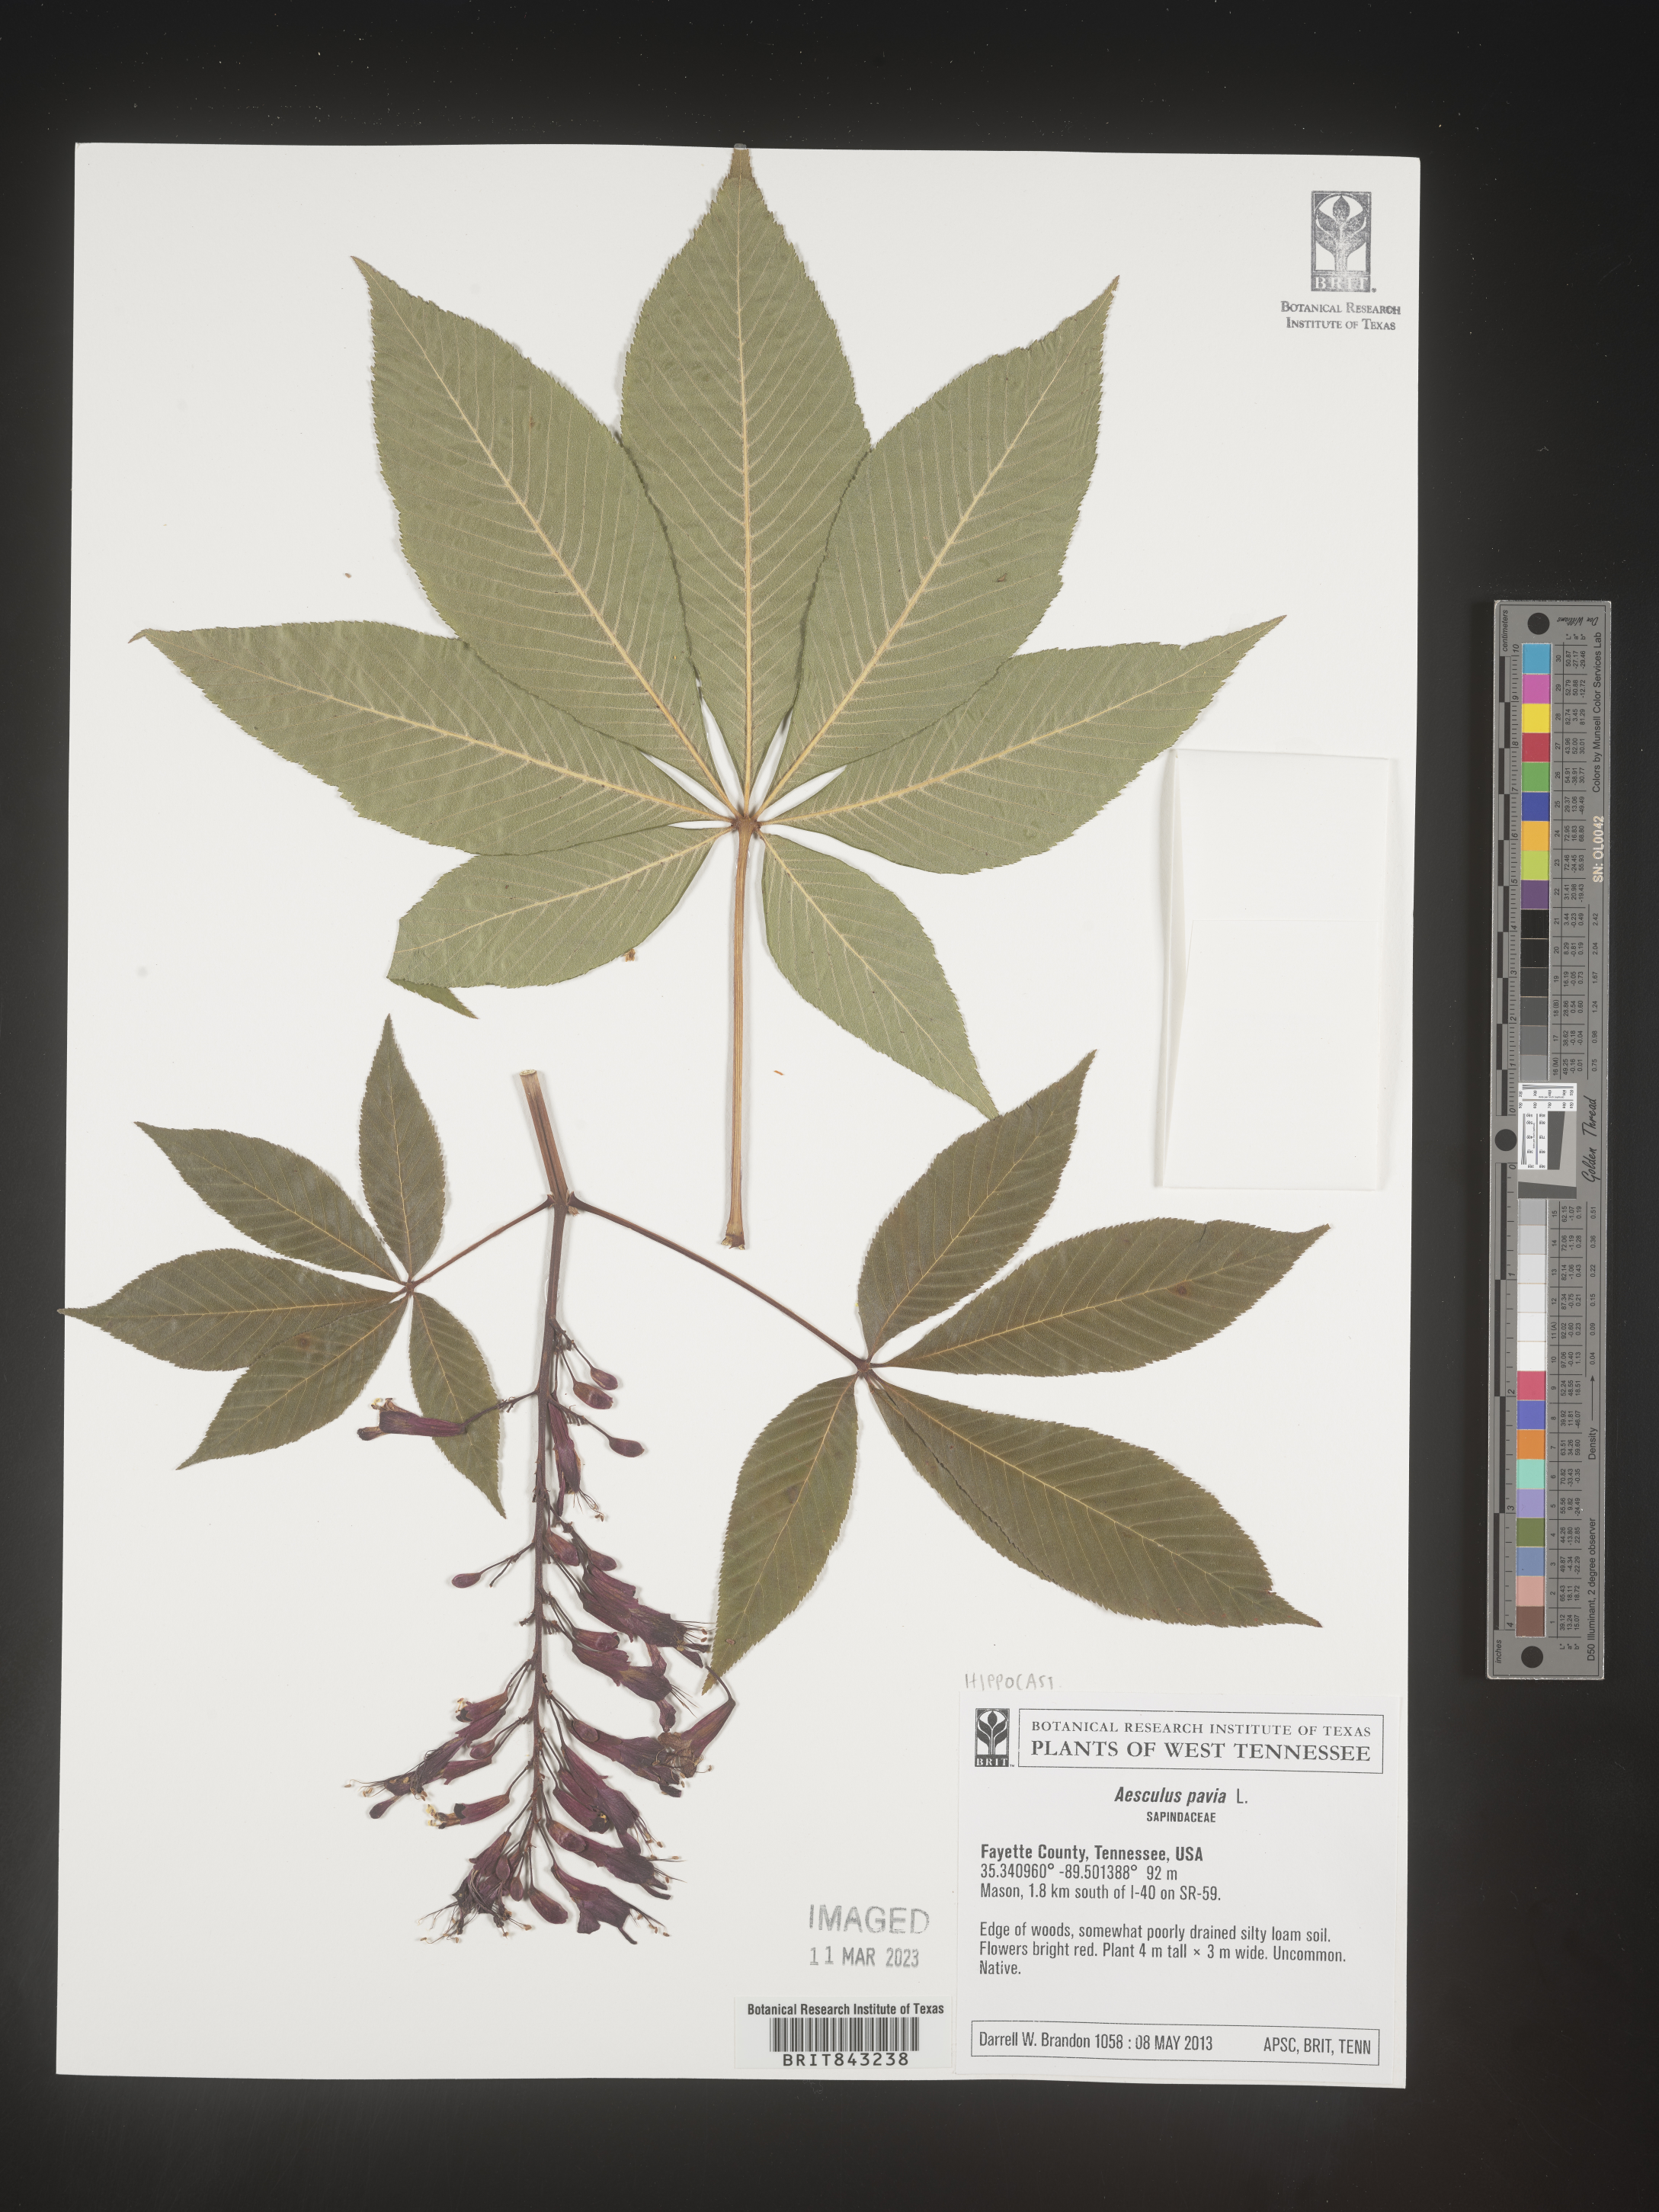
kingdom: Plantae
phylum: Tracheophyta
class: Magnoliopsida
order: Sapindales
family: Sapindaceae
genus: Aesculus
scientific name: Aesculus pavia
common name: Red buckeye
